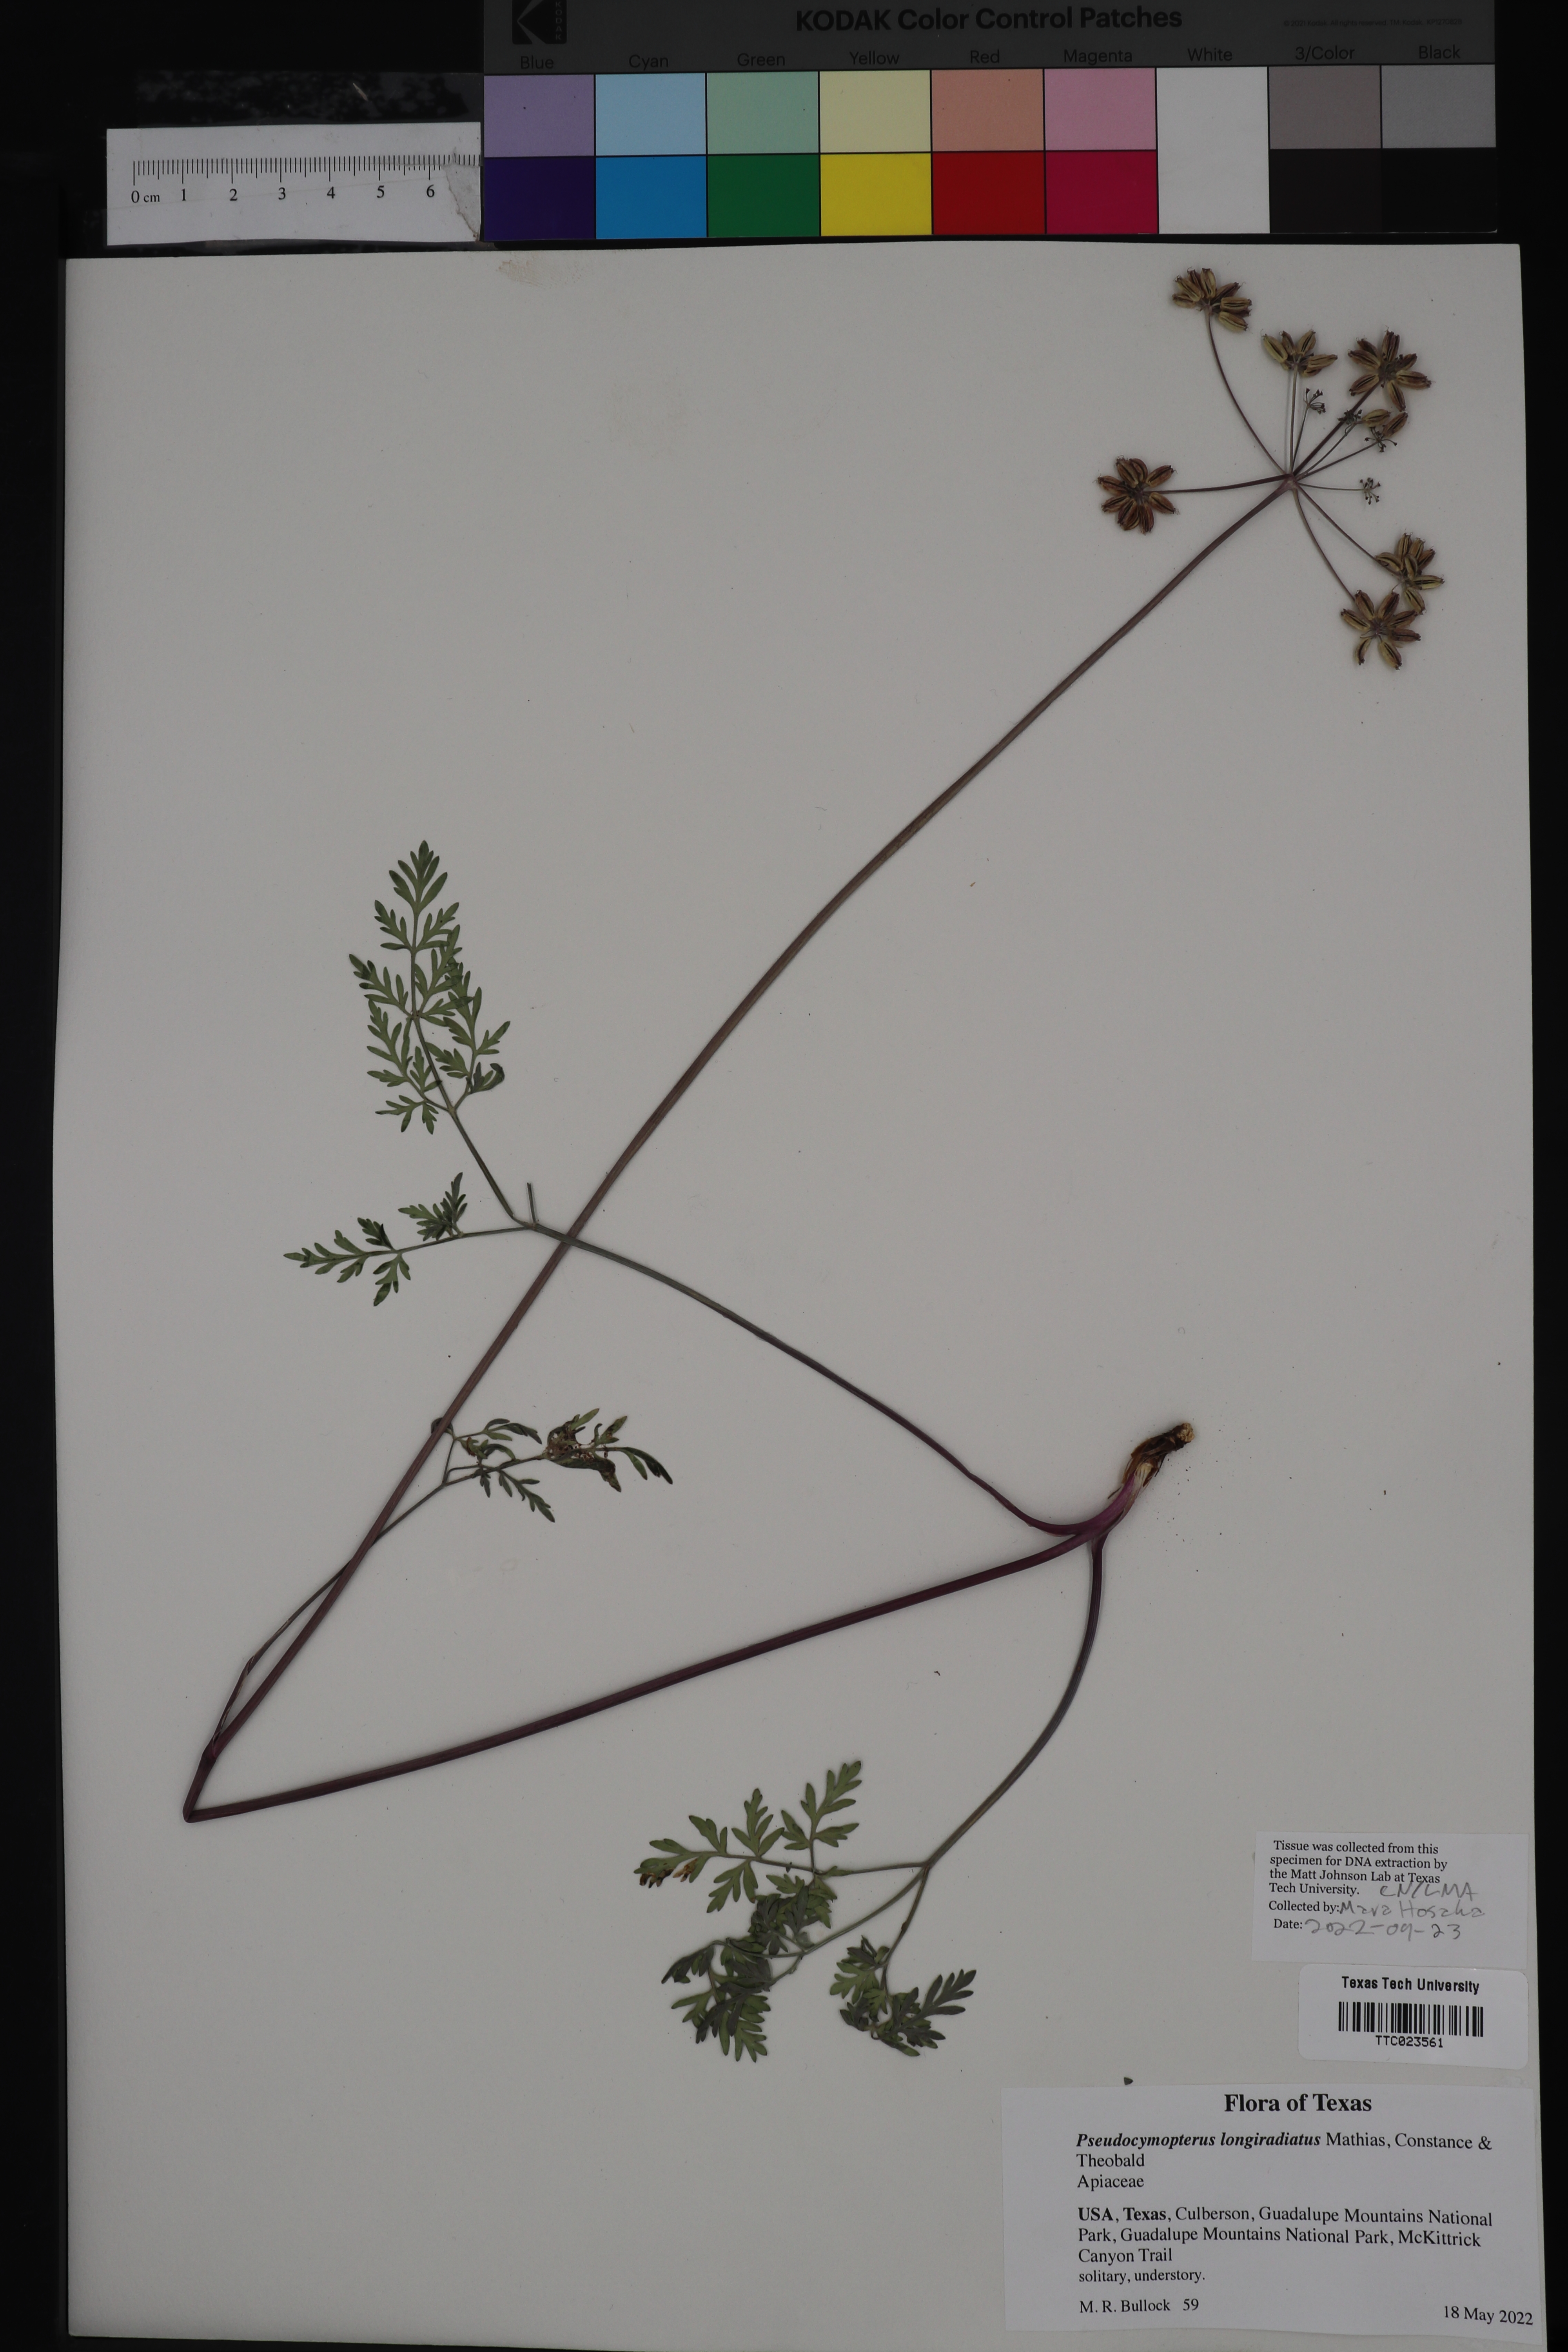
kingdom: Plantae
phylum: Tracheophyta
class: Magnoliopsida
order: Apiales
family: Apiaceae
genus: Pseudocymopterus
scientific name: Pseudocymopterus longiradiatus
